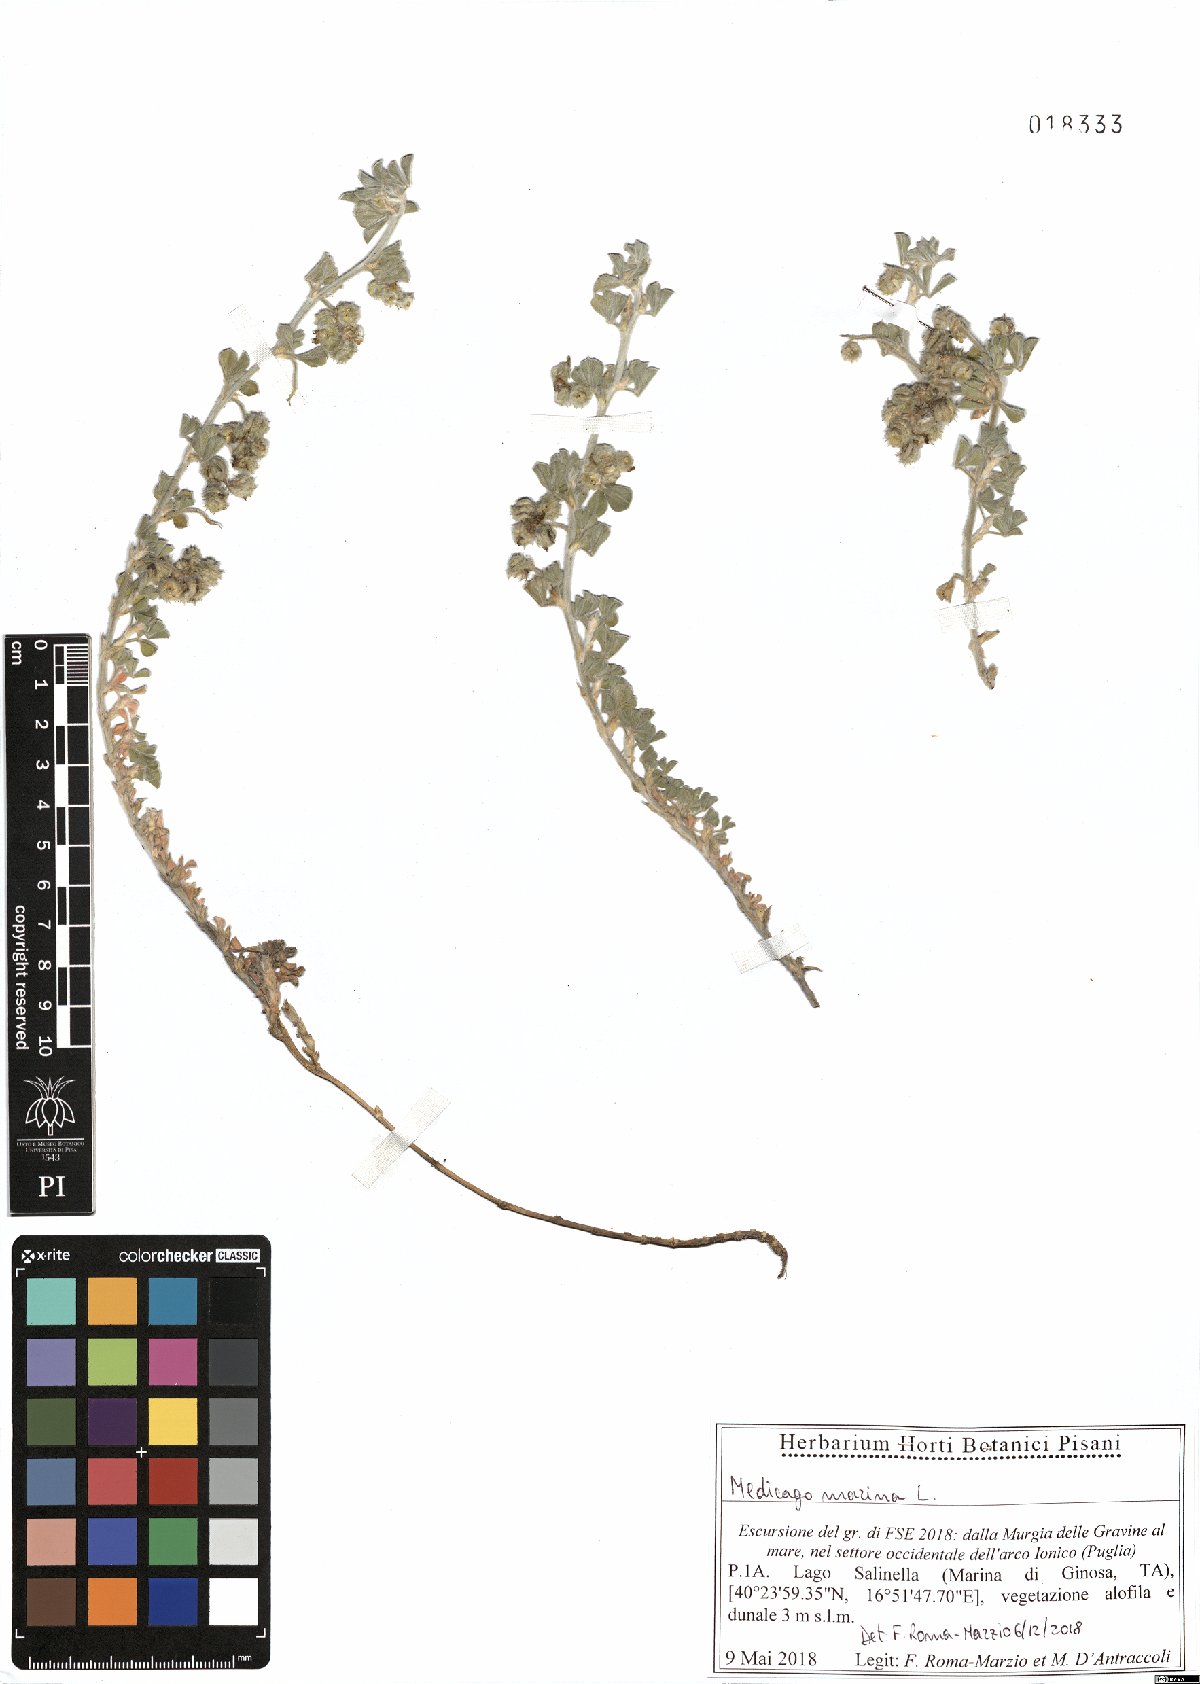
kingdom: Plantae
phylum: Tracheophyta
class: Magnoliopsida
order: Fabales
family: Fabaceae
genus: Medicago
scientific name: Medicago marina
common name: Sea medick
